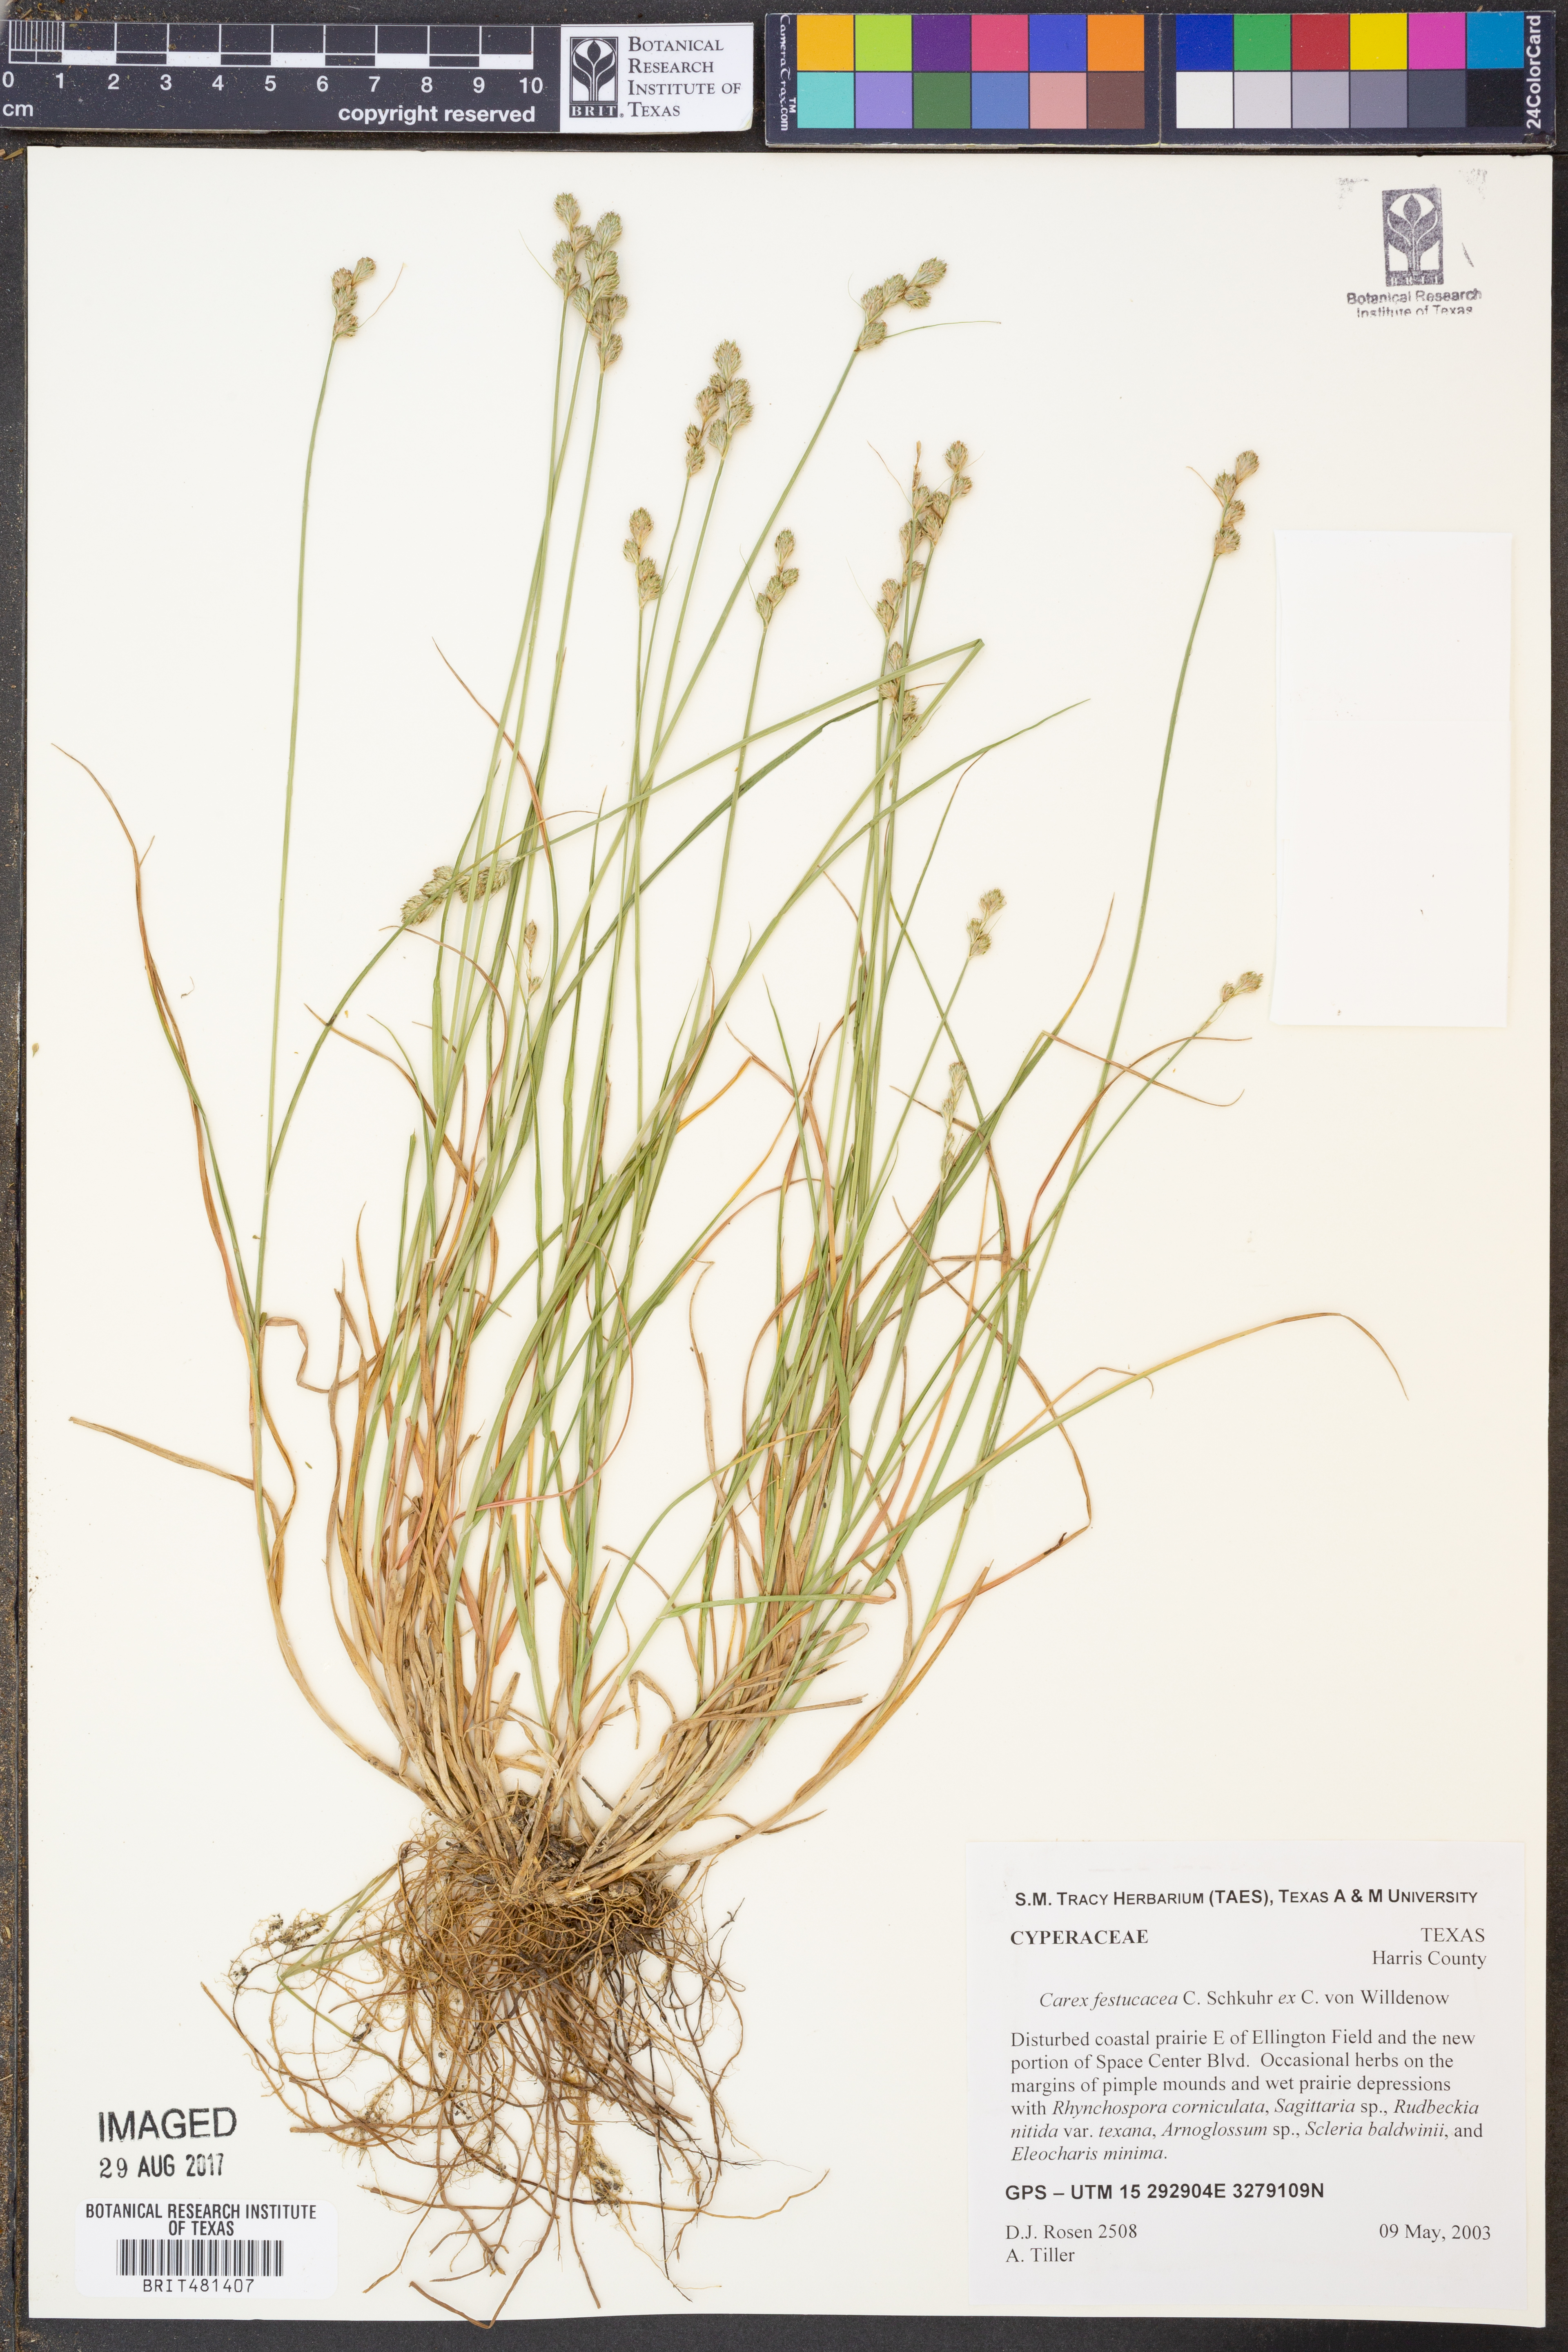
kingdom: Plantae
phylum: Tracheophyta
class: Liliopsida
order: Poales
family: Cyperaceae
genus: Carex
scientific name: Carex festucacea
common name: Fescue oval sedge
